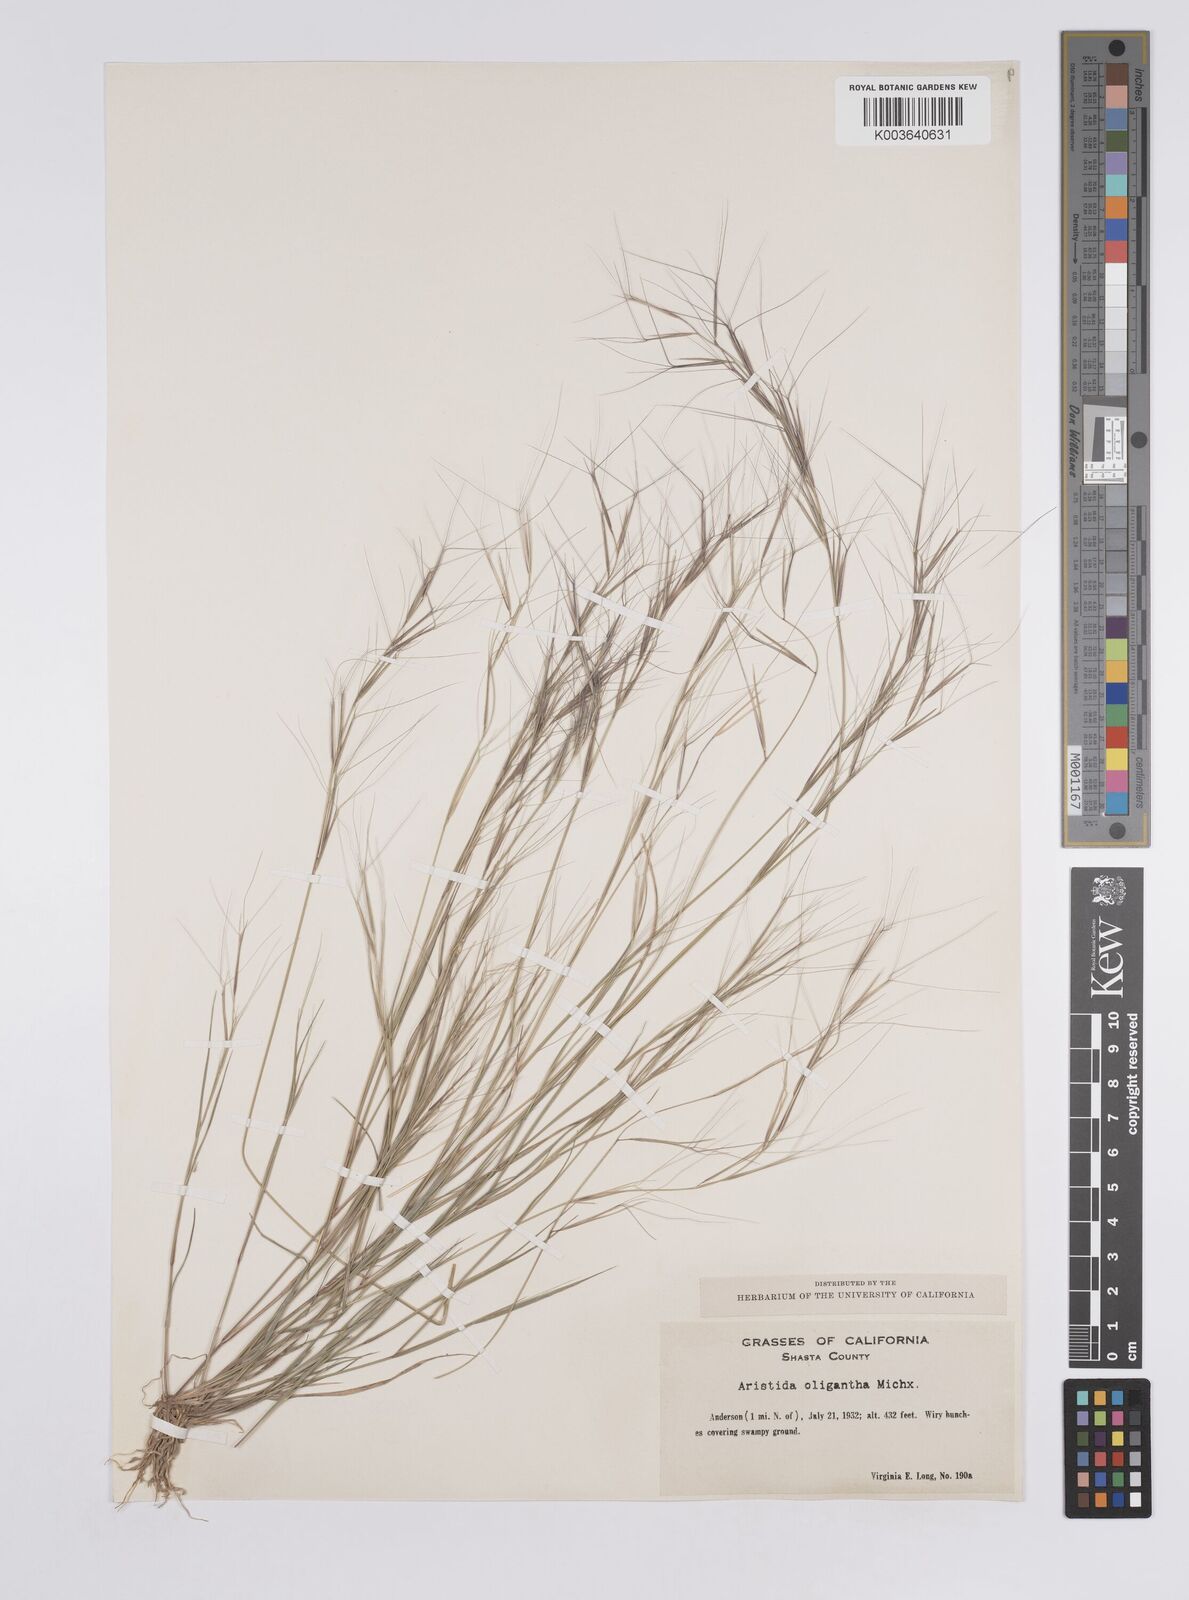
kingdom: Plantae
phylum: Tracheophyta
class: Liliopsida
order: Poales
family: Poaceae
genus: Aristida
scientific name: Aristida oligantha
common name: Few-flowered aristida
